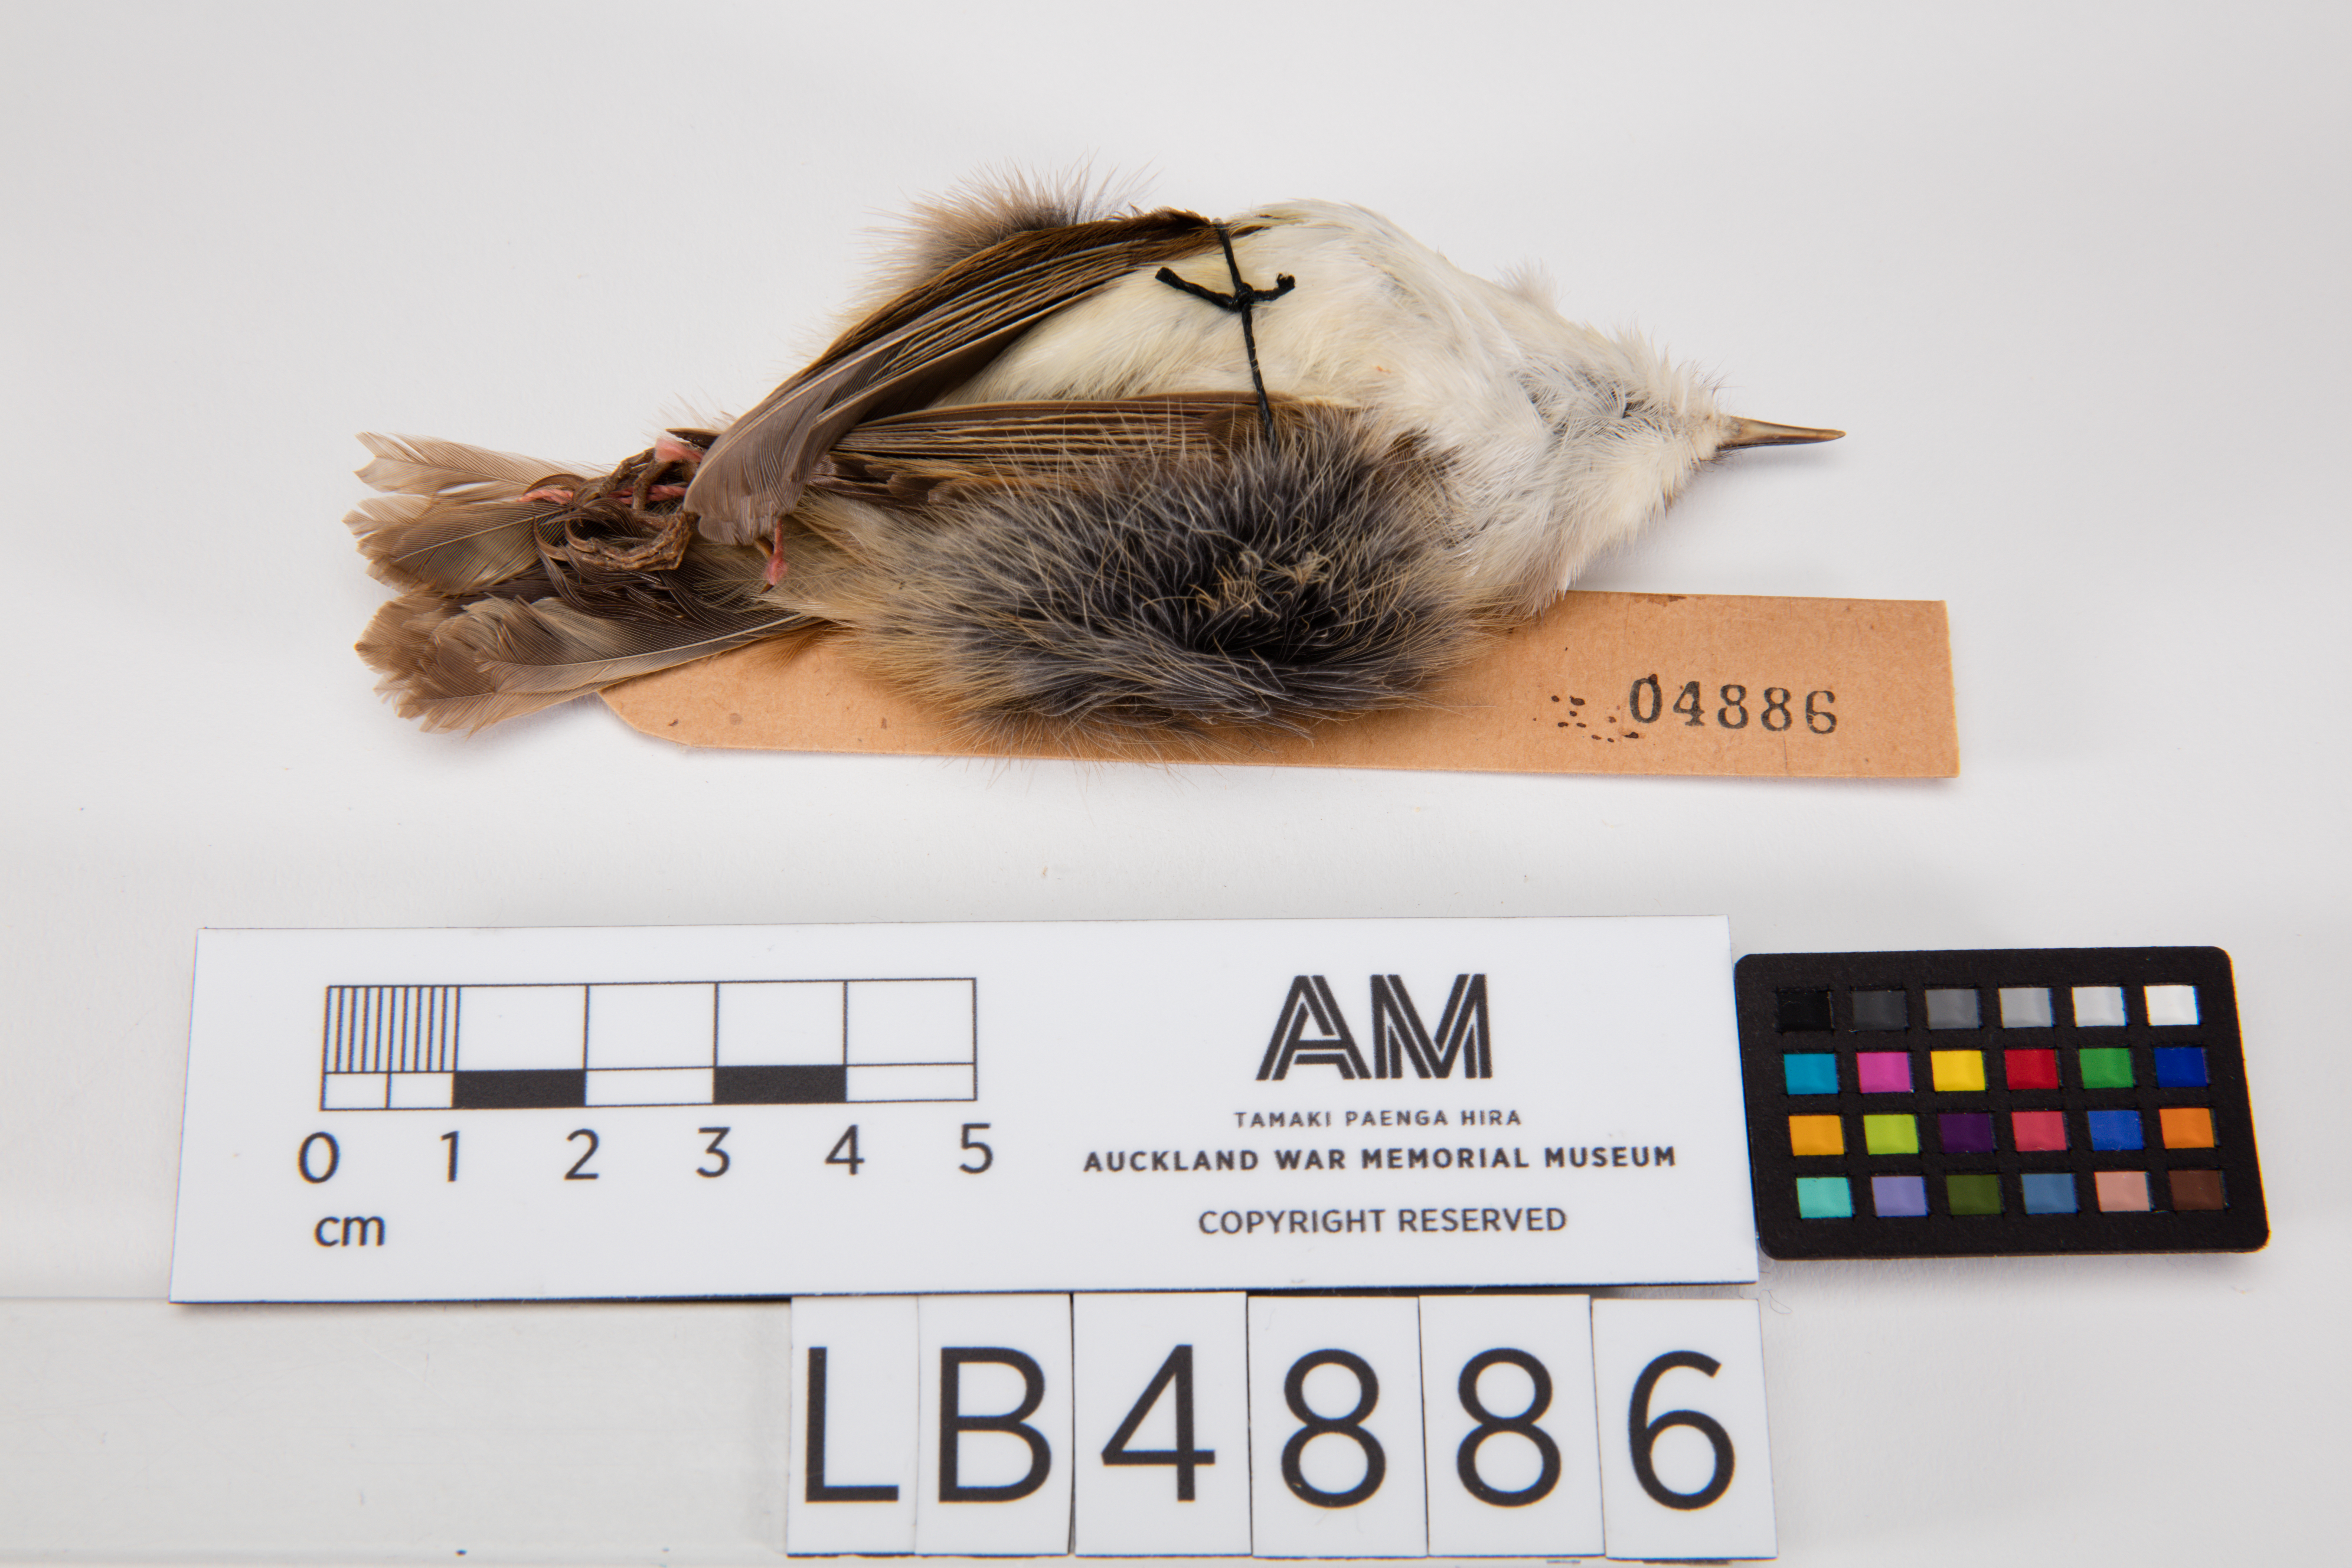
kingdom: Animalia
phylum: Chordata
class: Aves
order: Passeriformes
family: Acanthizidae
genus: Gerygone
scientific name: Gerygone albofrontata
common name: Chatham gerygone
